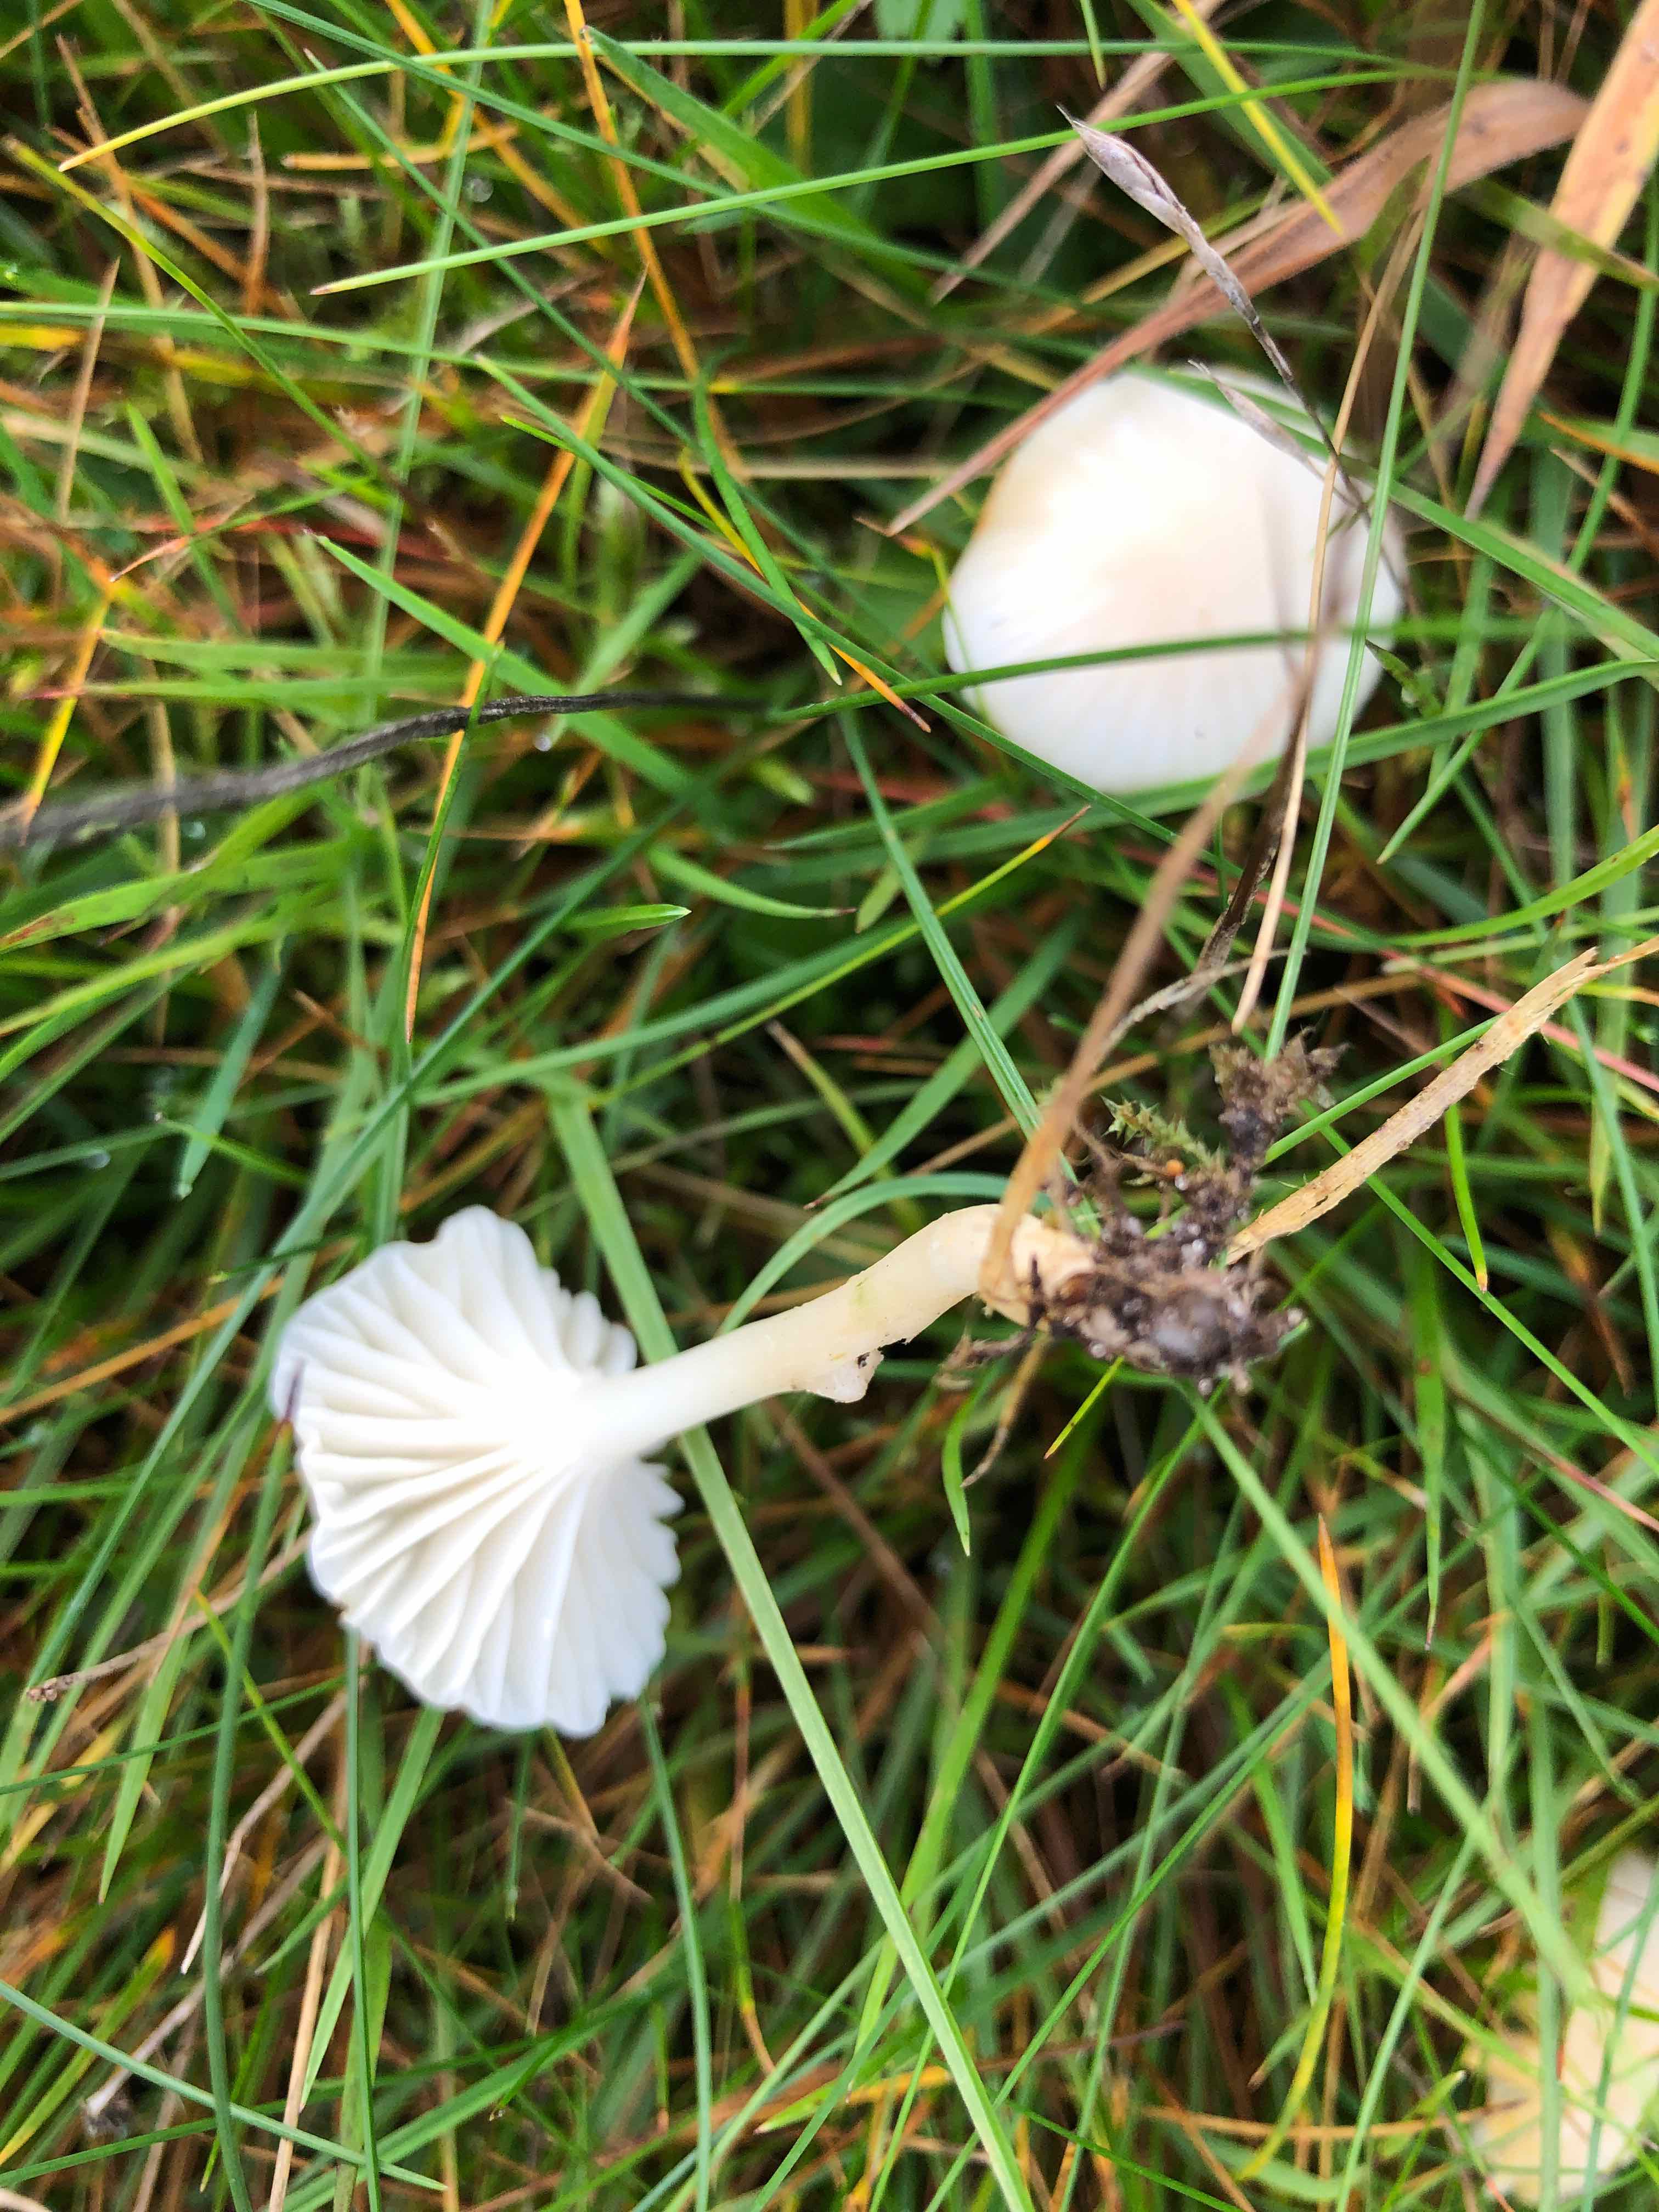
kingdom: Fungi
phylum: Basidiomycota
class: Agaricomycetes
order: Agaricales
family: Hygrophoraceae
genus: Cuphophyllus
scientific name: Cuphophyllus virgineus
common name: snehvid vokshat
